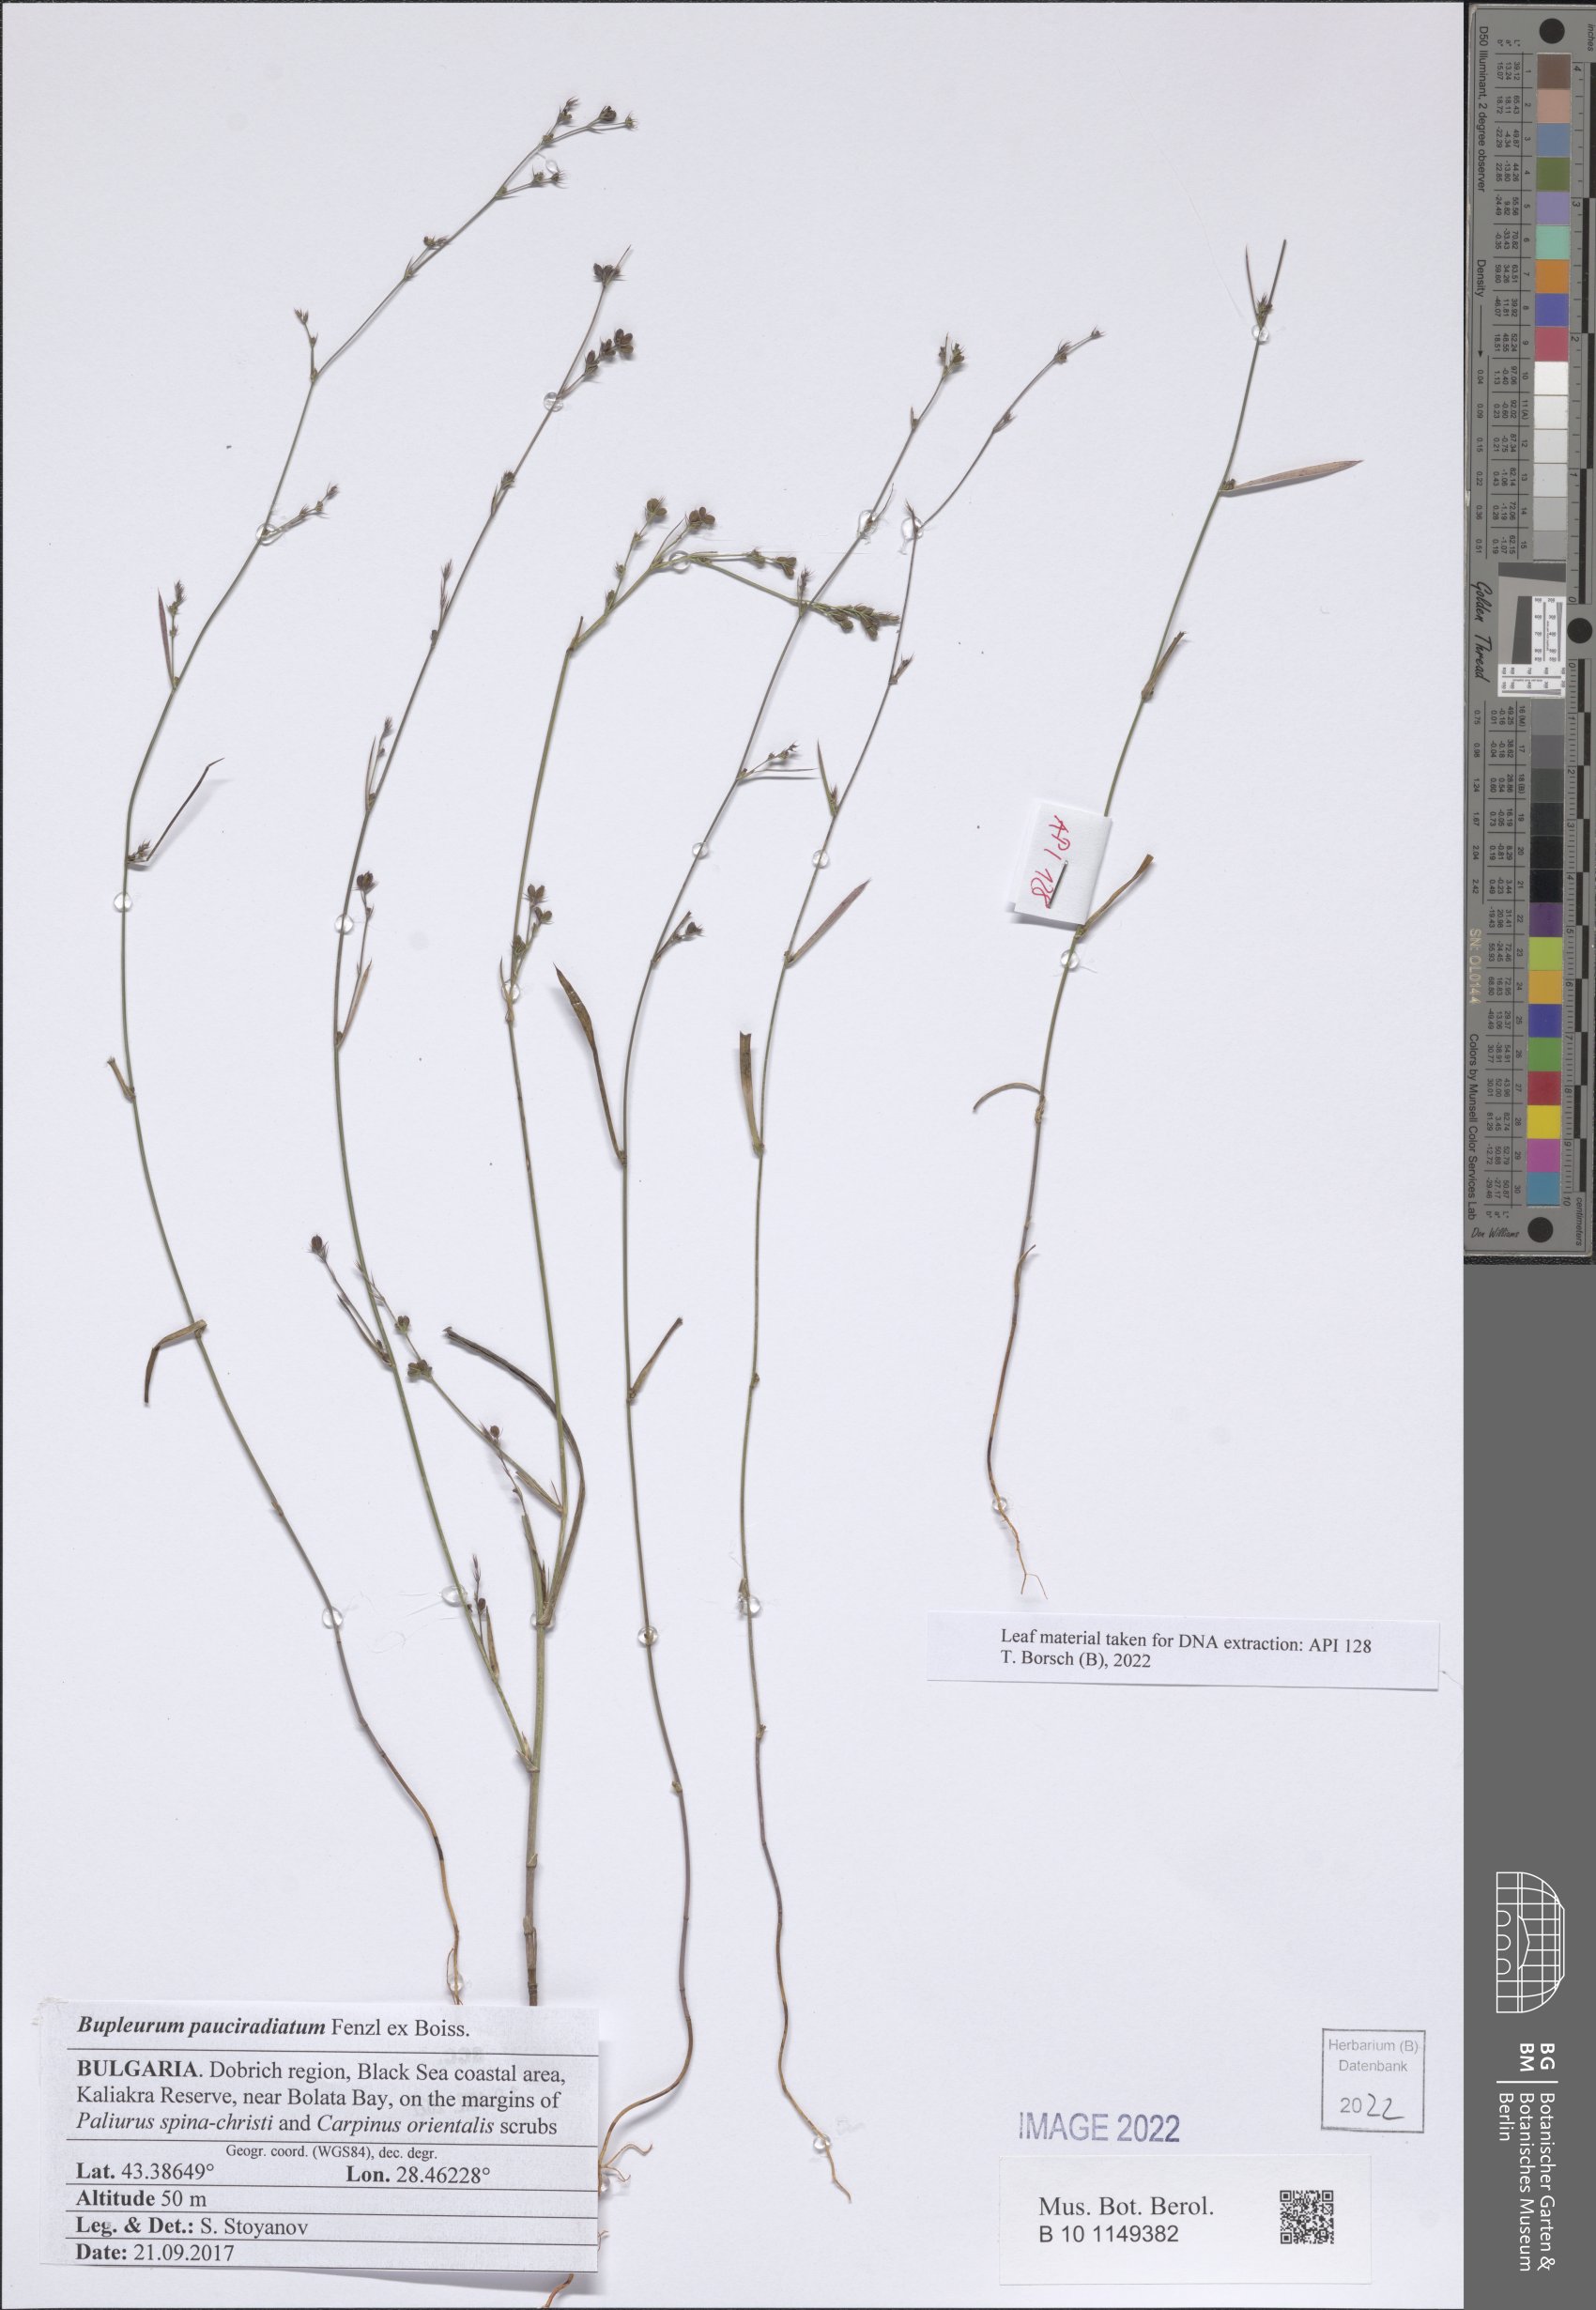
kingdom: Plantae
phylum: Tracheophyta
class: Magnoliopsida
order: Apiales
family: Apiaceae
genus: Bupleurum
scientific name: Bupleurum pauciradiatum
